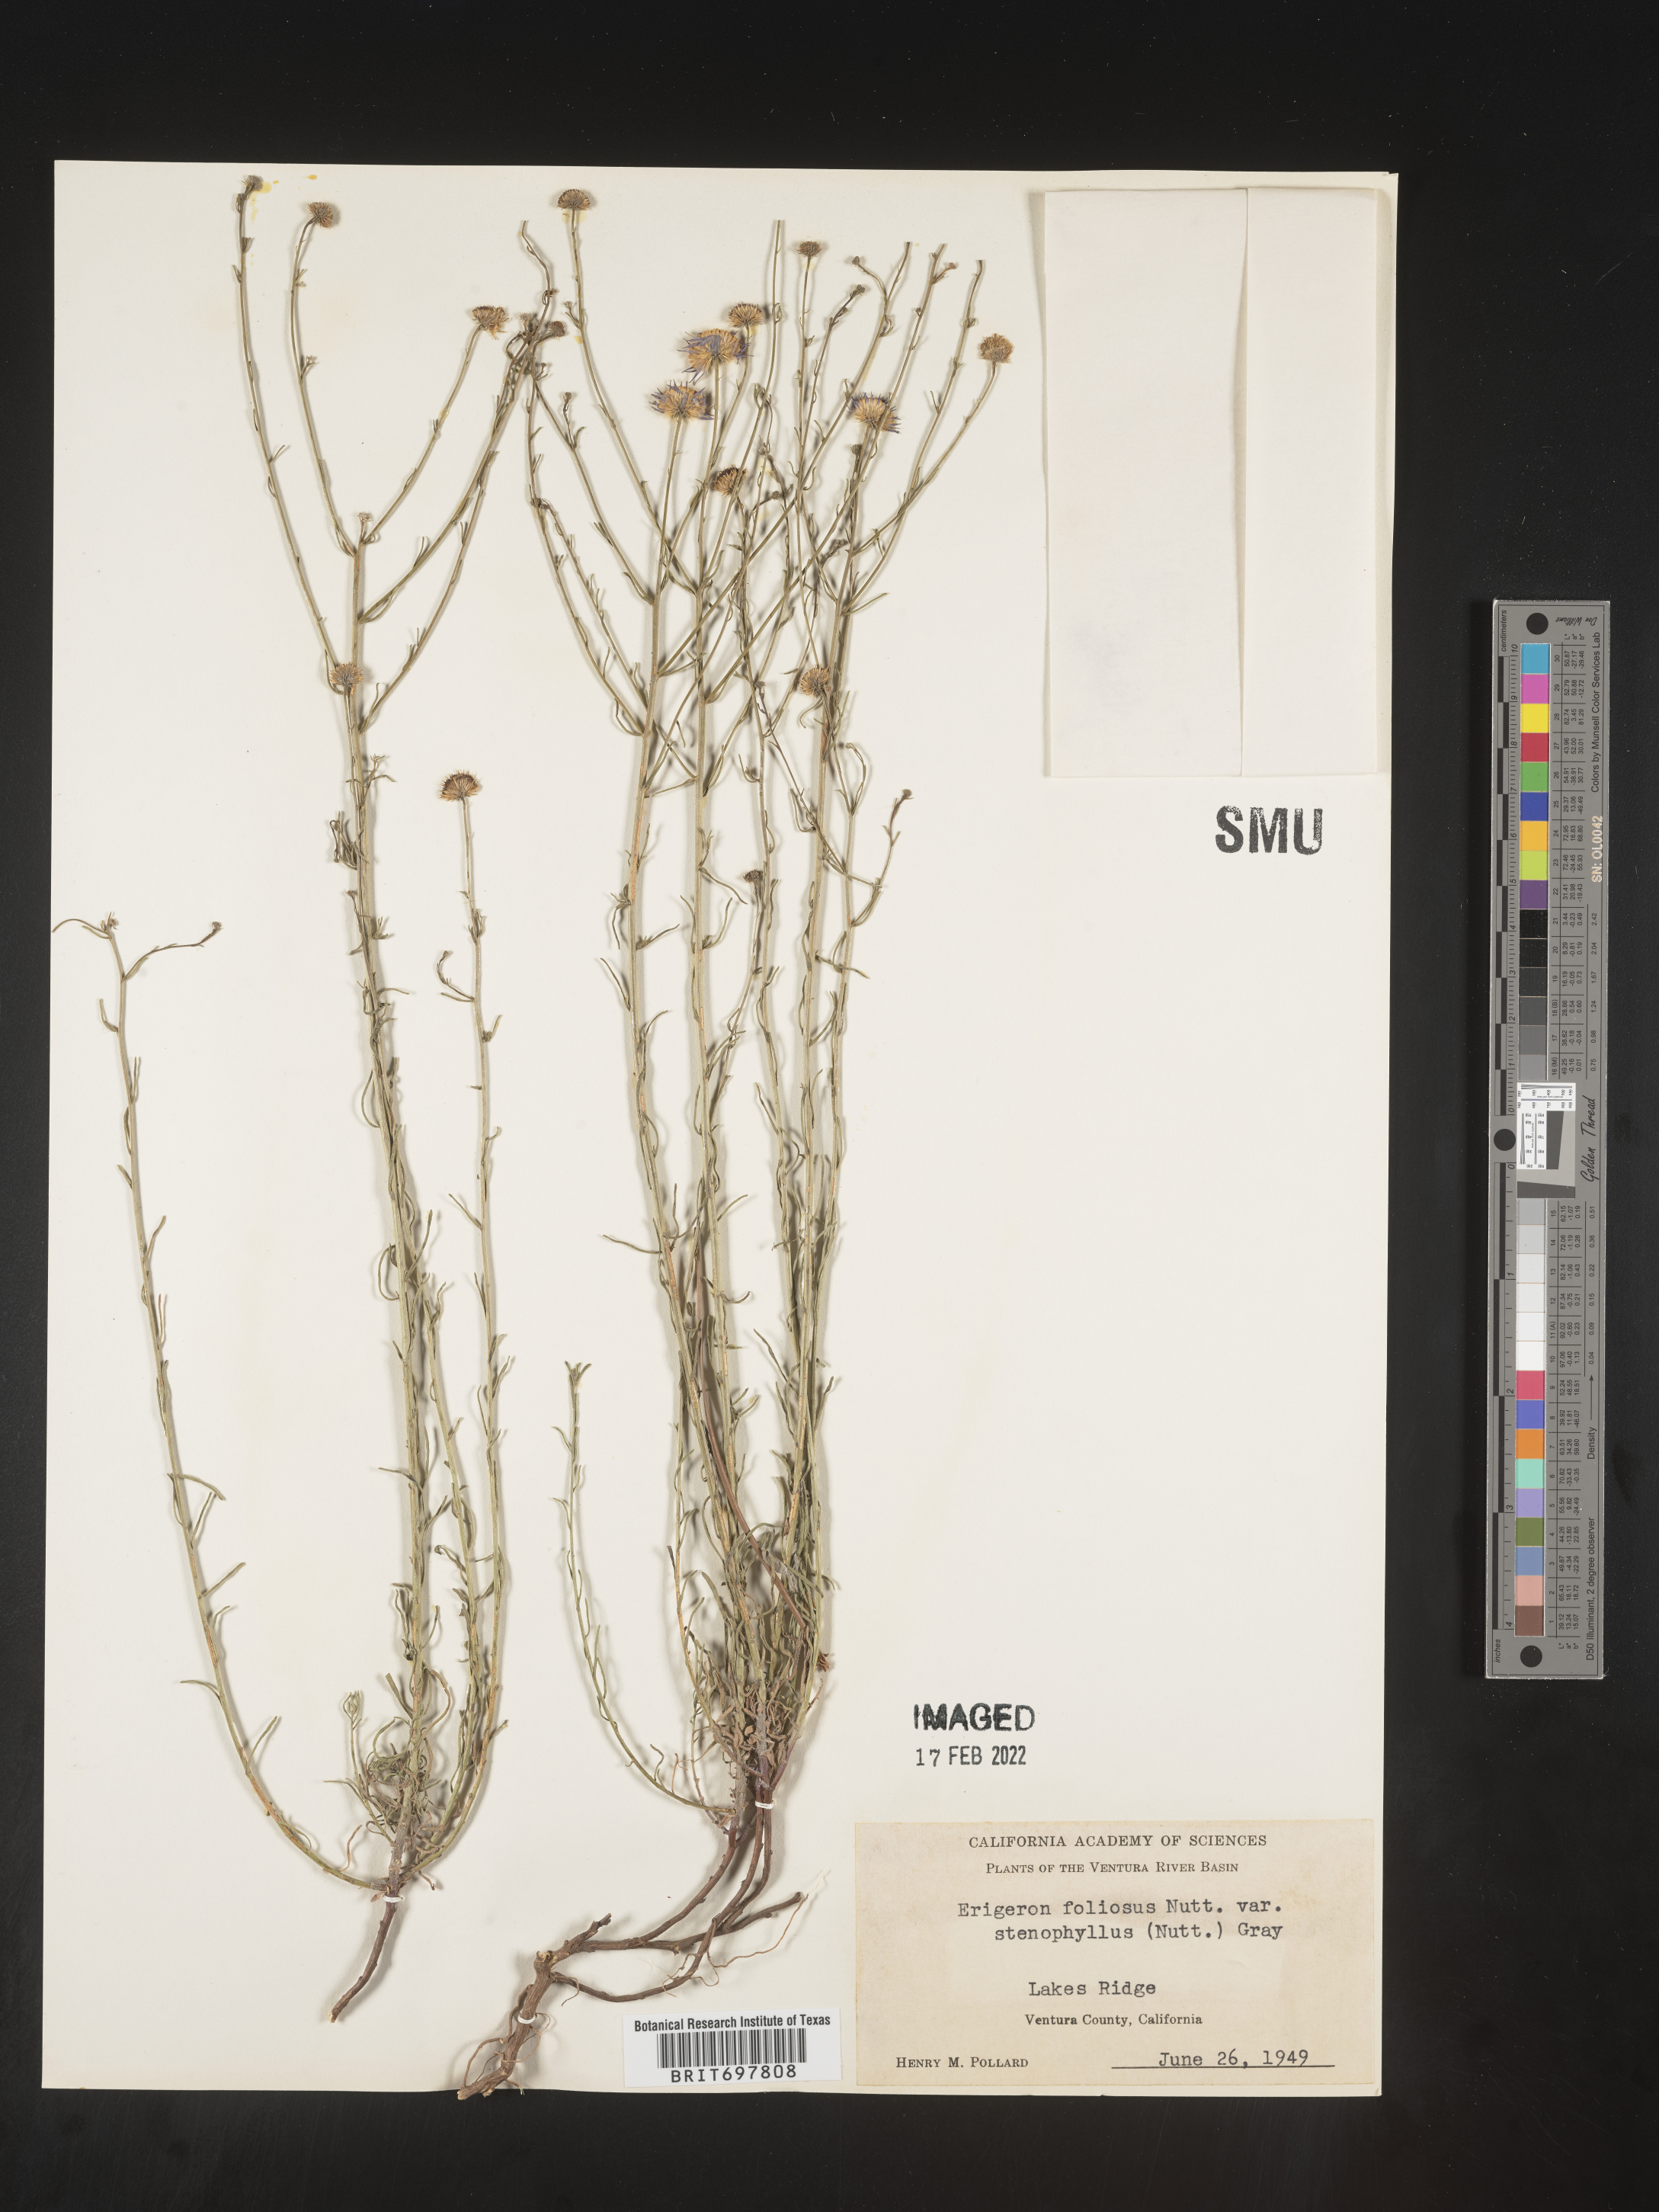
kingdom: Plantae
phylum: Tracheophyta
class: Magnoliopsida
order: Asterales
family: Asteraceae
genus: Erigeron
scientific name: Erigeron foliosus
